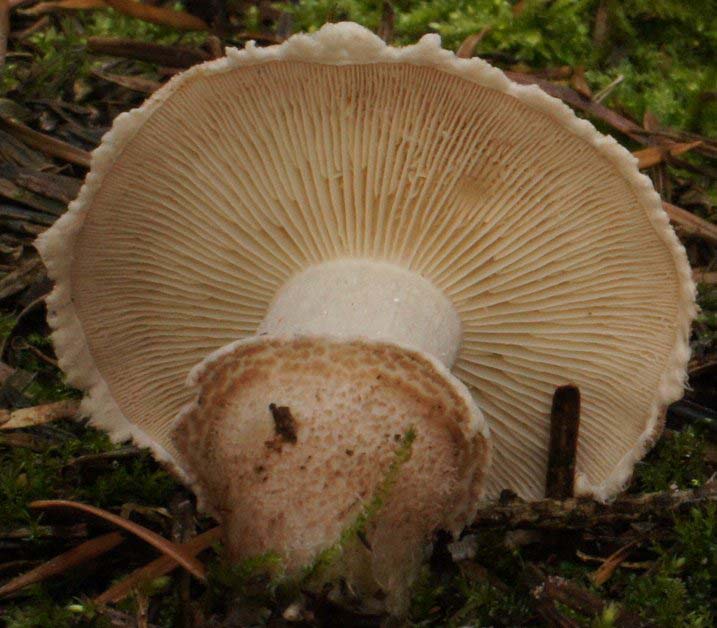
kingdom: Fungi
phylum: Basidiomycota
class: Agaricomycetes
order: Agaricales
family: Tricholomataceae
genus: Cystoderma
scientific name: Cystoderma carcharias
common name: rødgrå grynhat
